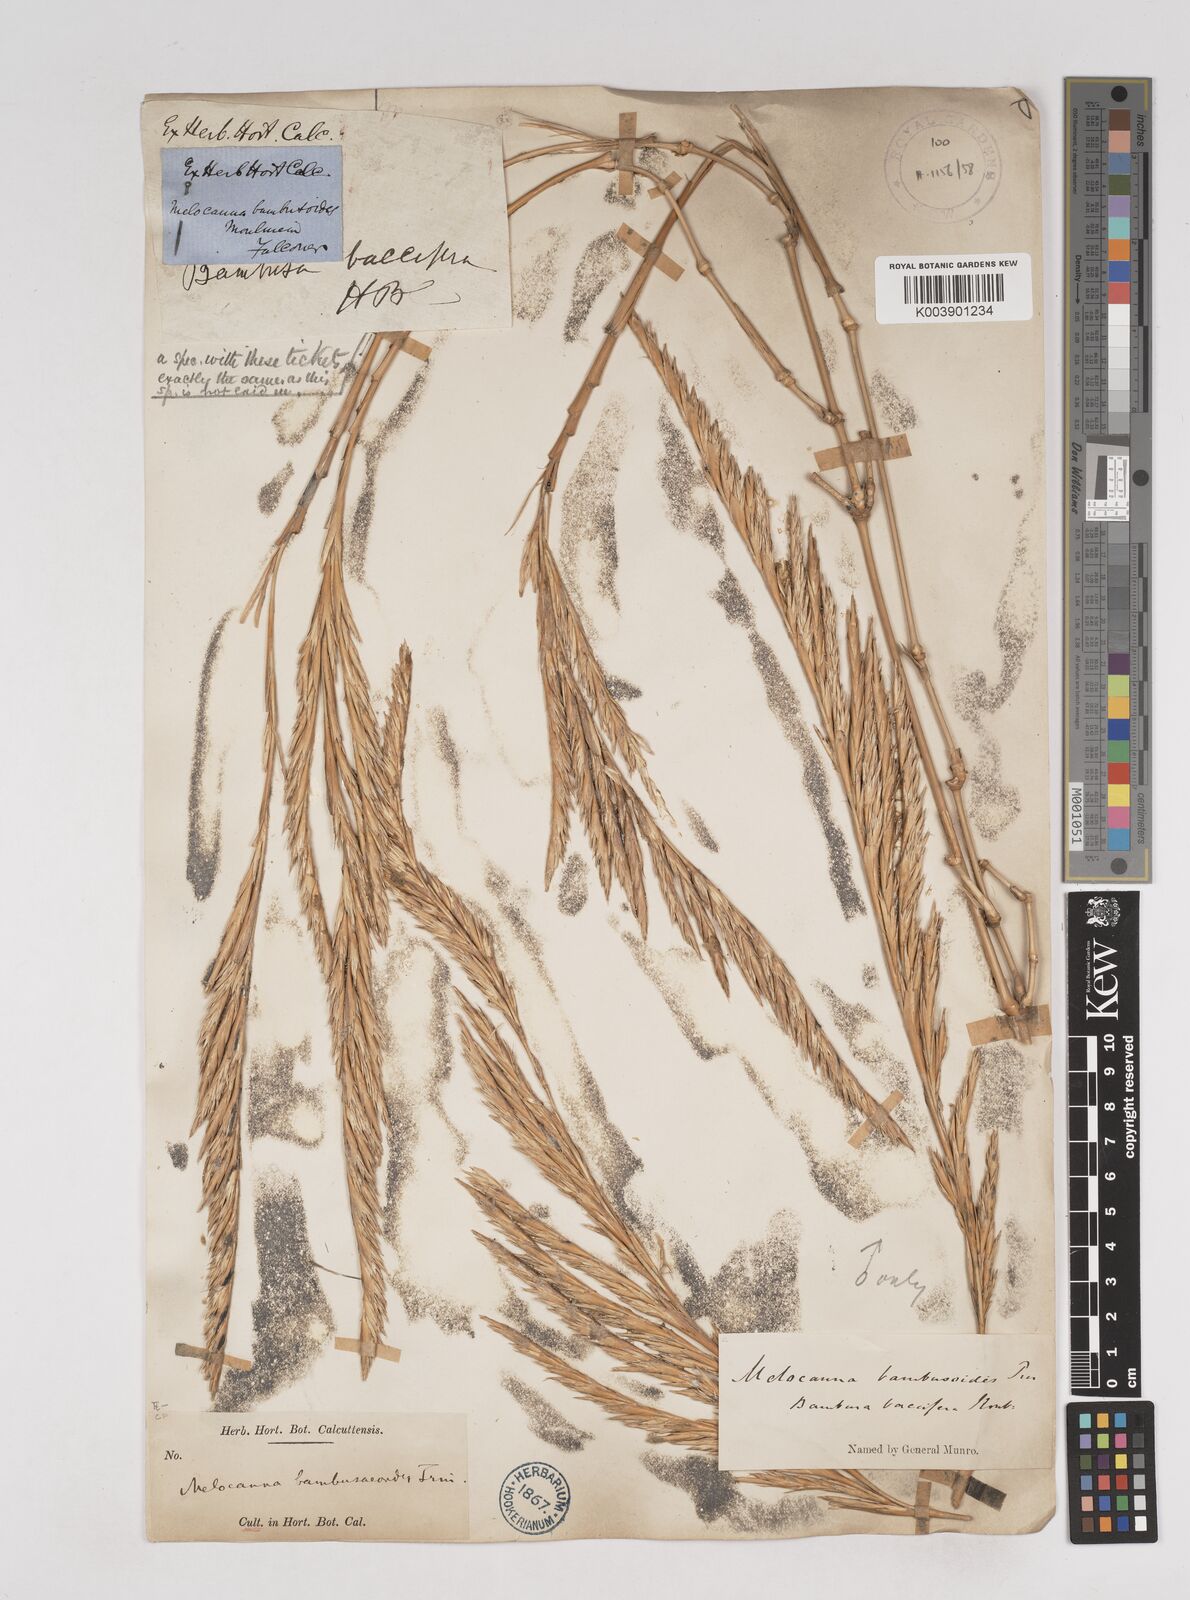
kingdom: Plantae
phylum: Tracheophyta
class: Liliopsida
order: Poales
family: Poaceae
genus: Melocanna
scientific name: Melocanna baccifera
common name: Berry bamboo
